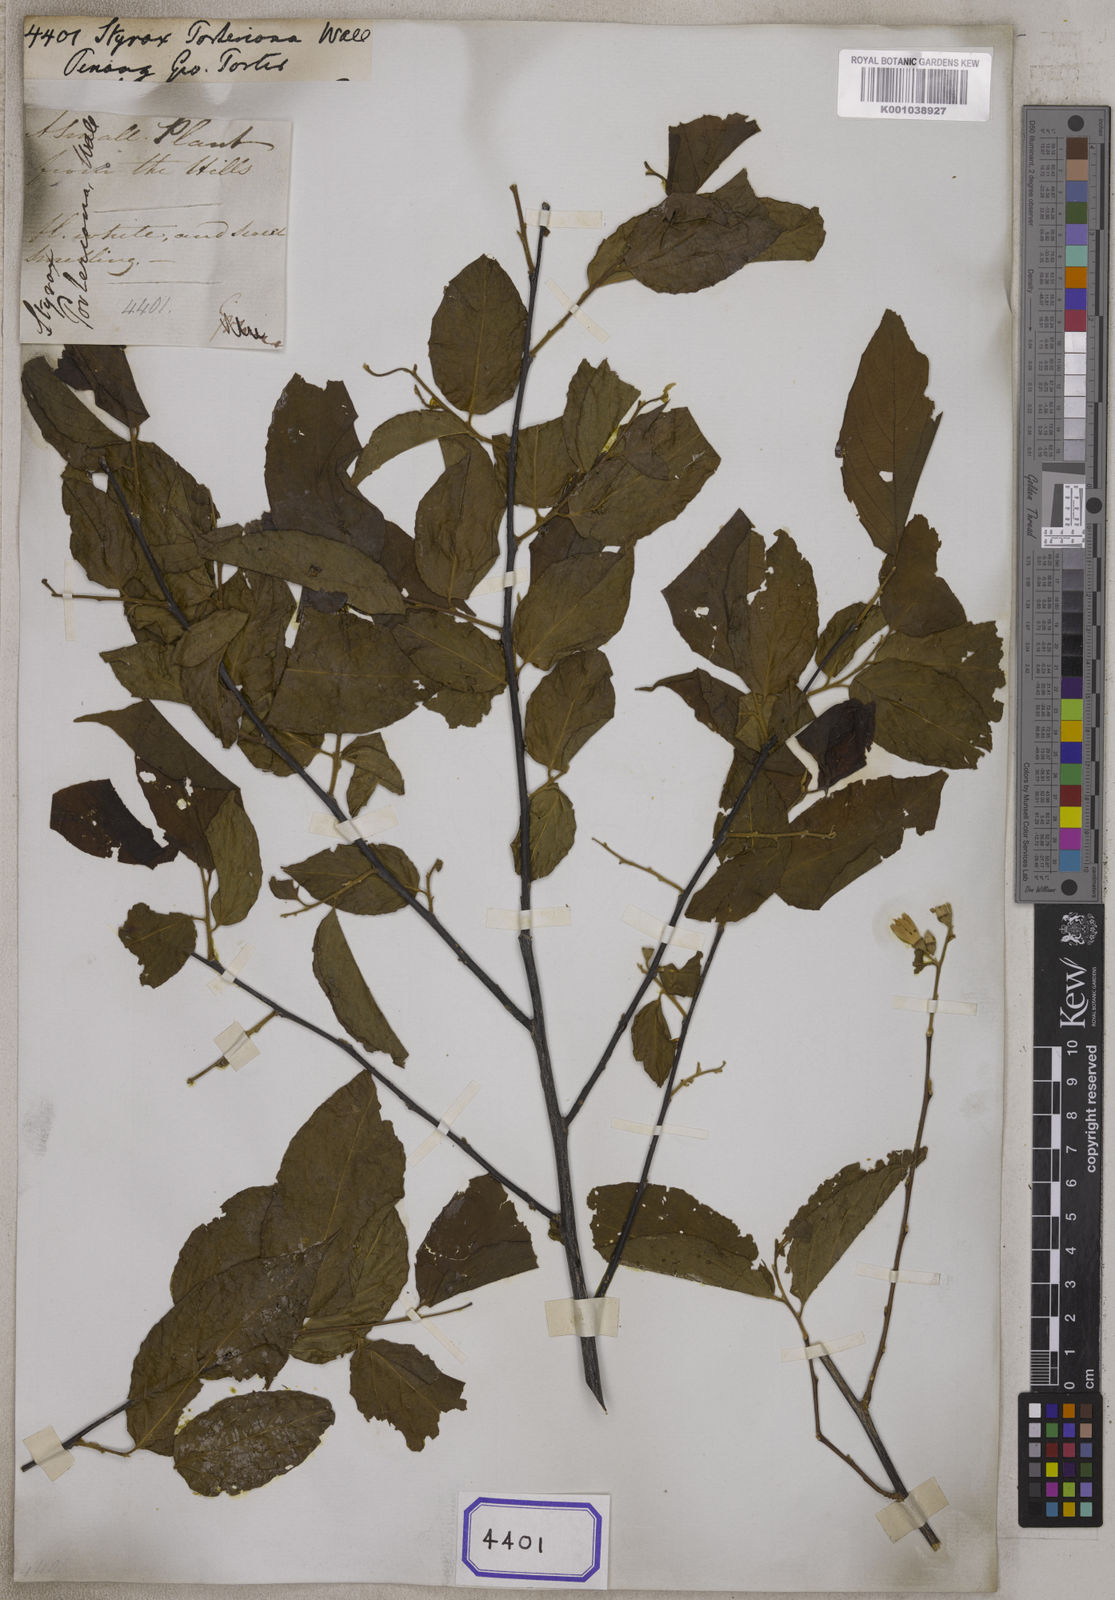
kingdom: Plantae
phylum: Tracheophyta
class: Magnoliopsida
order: Ericales
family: Styracaceae
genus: Styrax
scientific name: Styrax
